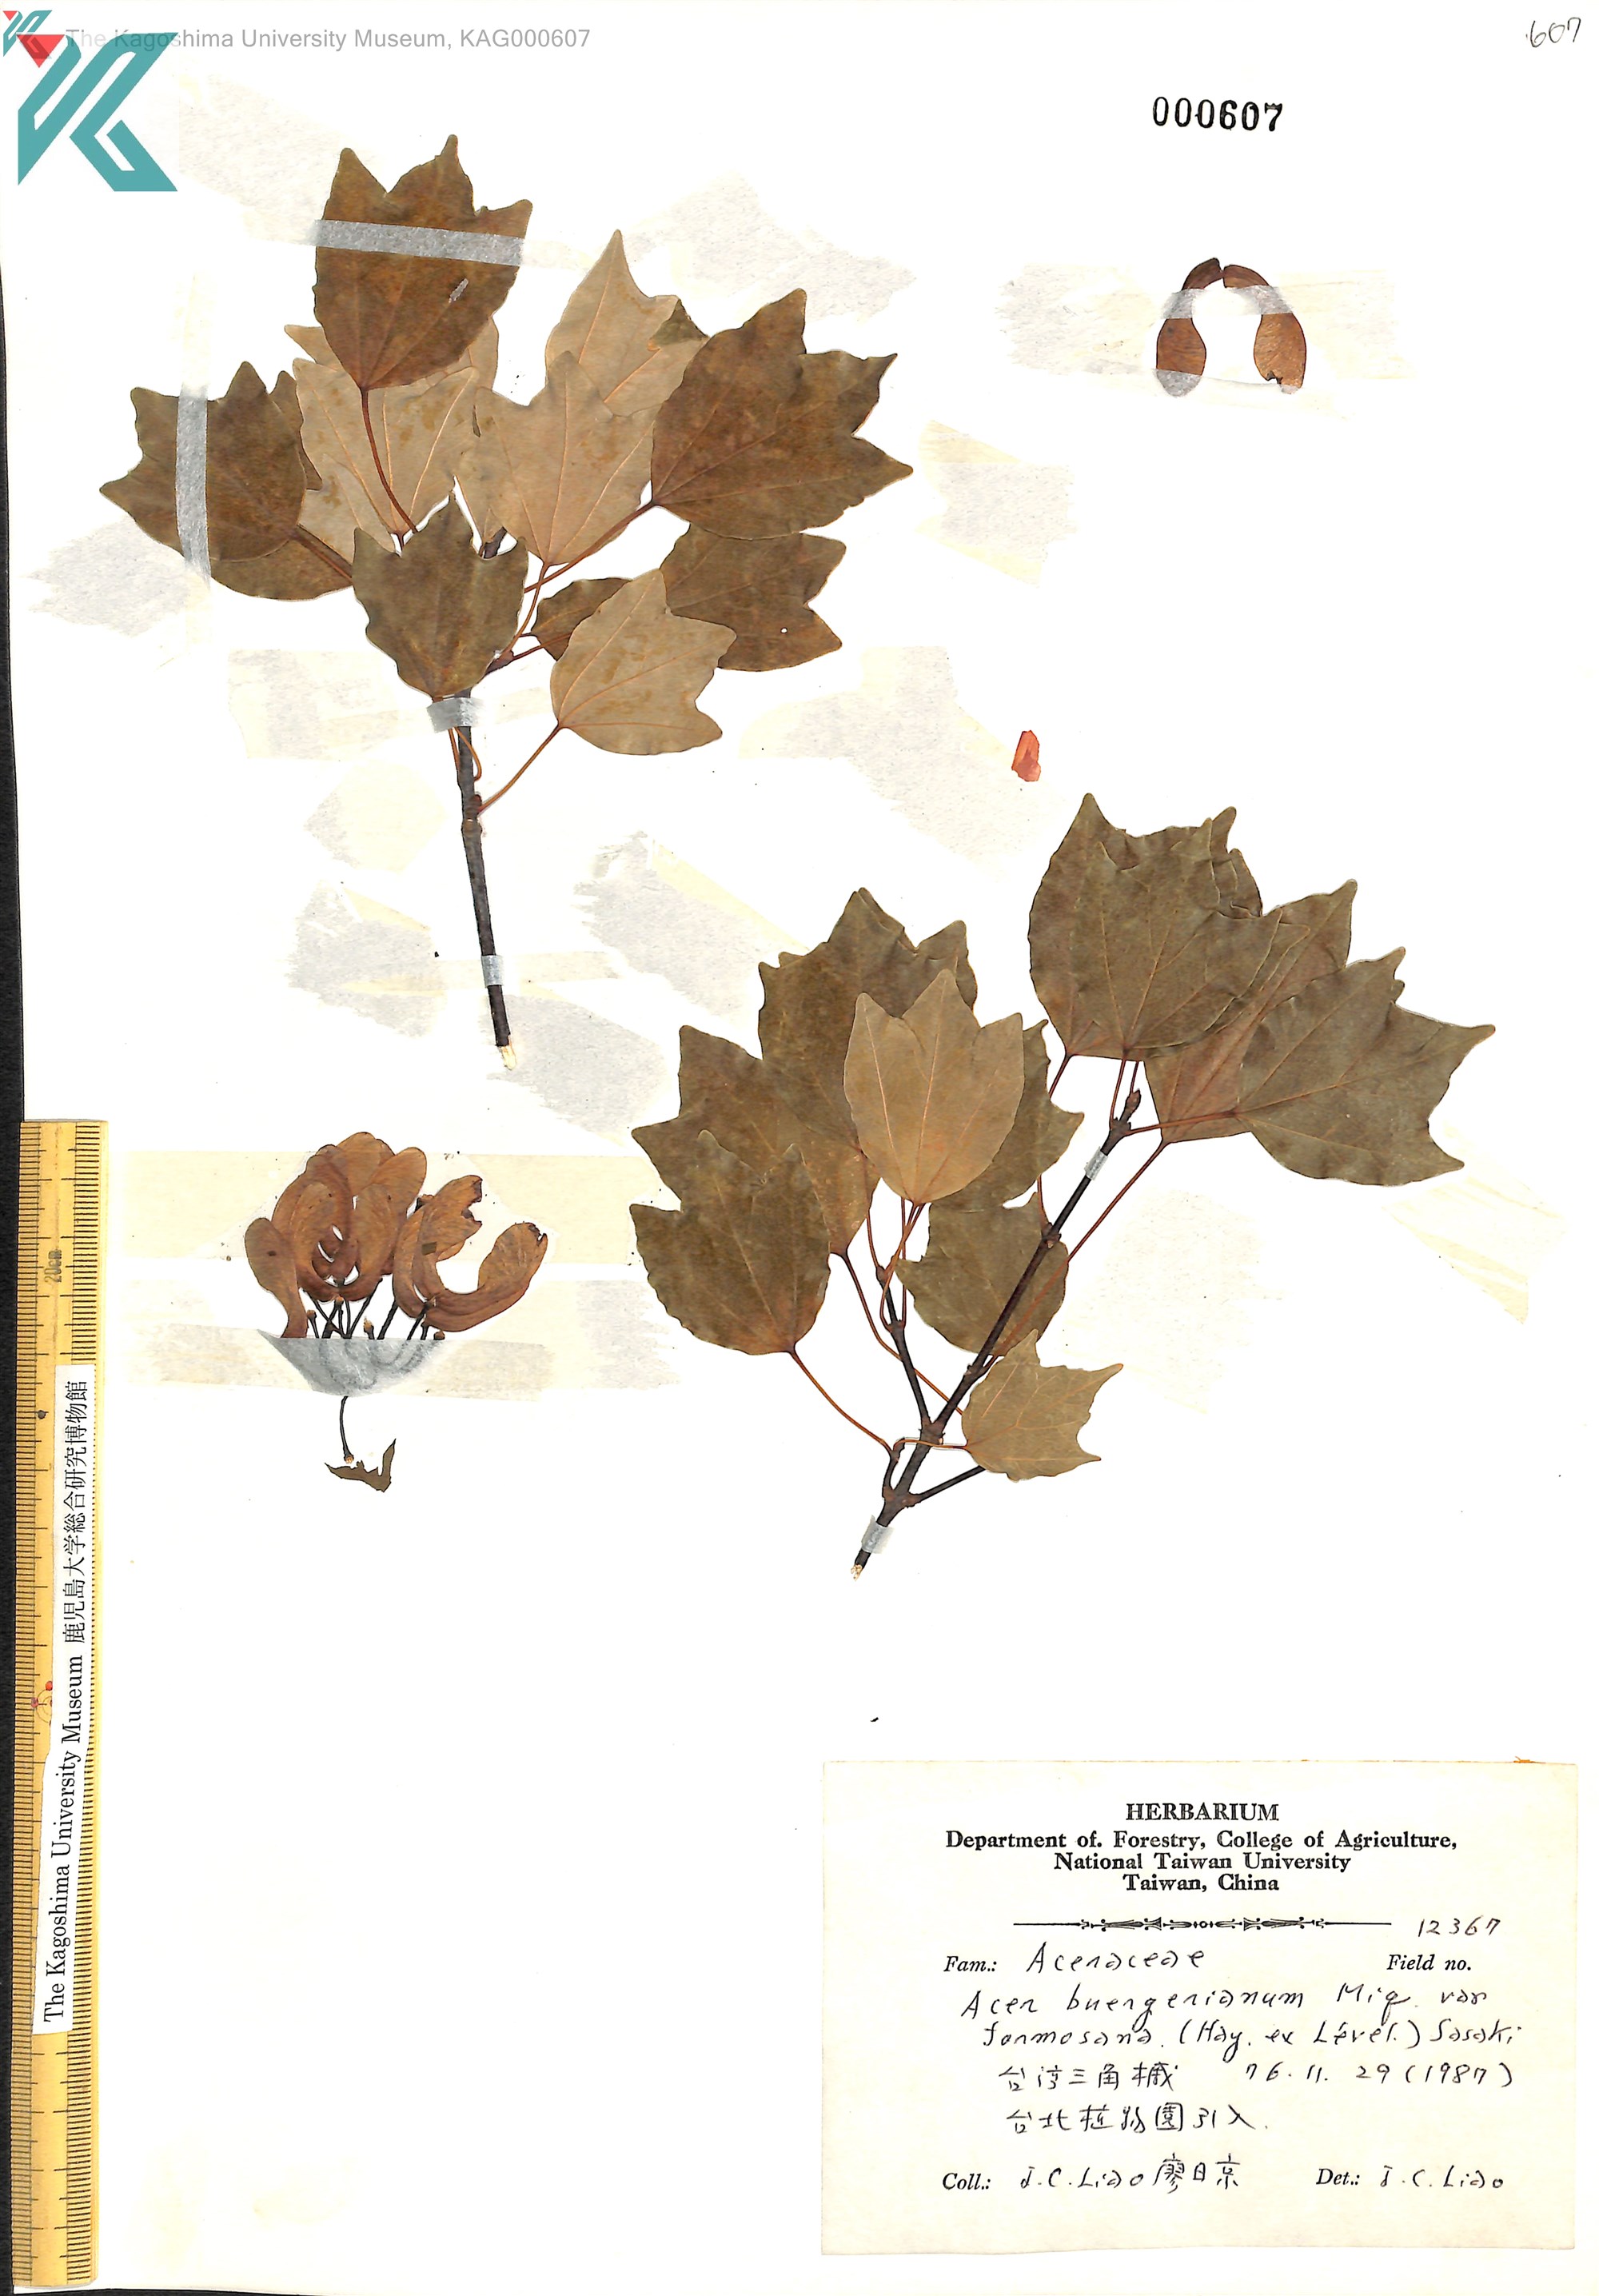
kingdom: Plantae
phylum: Tracheophyta
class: Magnoliopsida
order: Sapindales
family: Sapindaceae
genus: Acer
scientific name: Acer buergerianum
